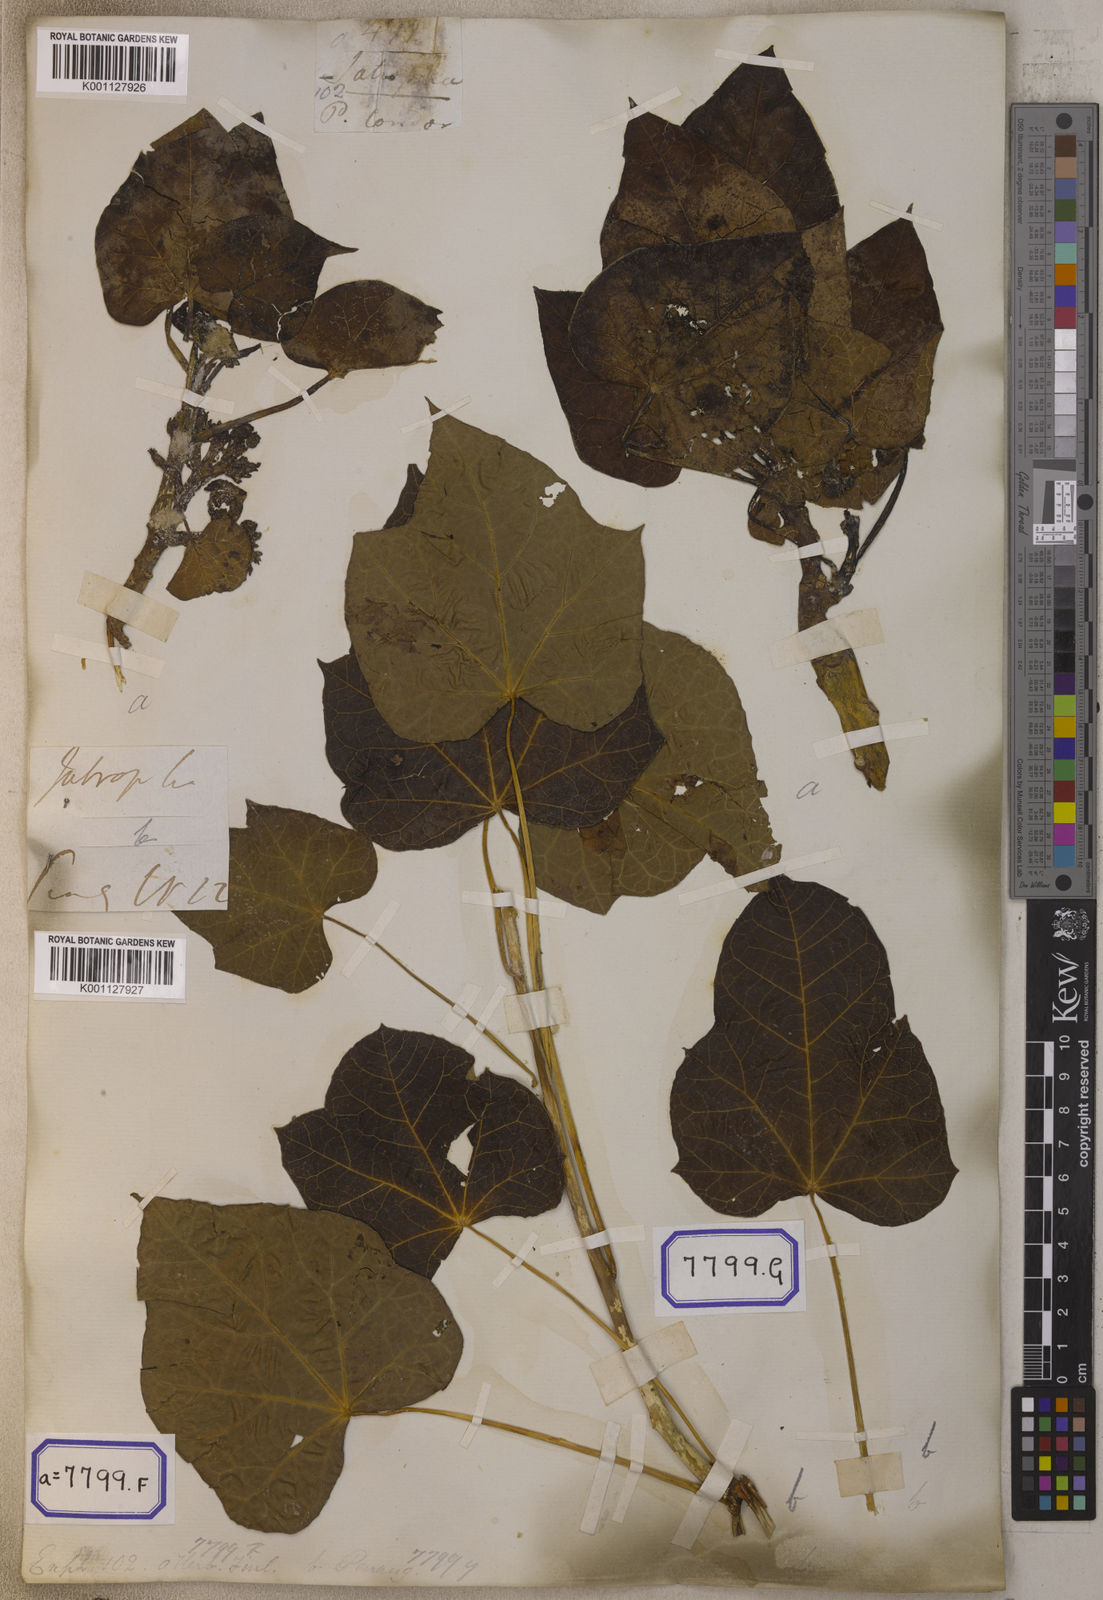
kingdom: Plantae
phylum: Tracheophyta
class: Magnoliopsida
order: Malpighiales
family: Euphorbiaceae
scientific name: Euphorbiaceae
